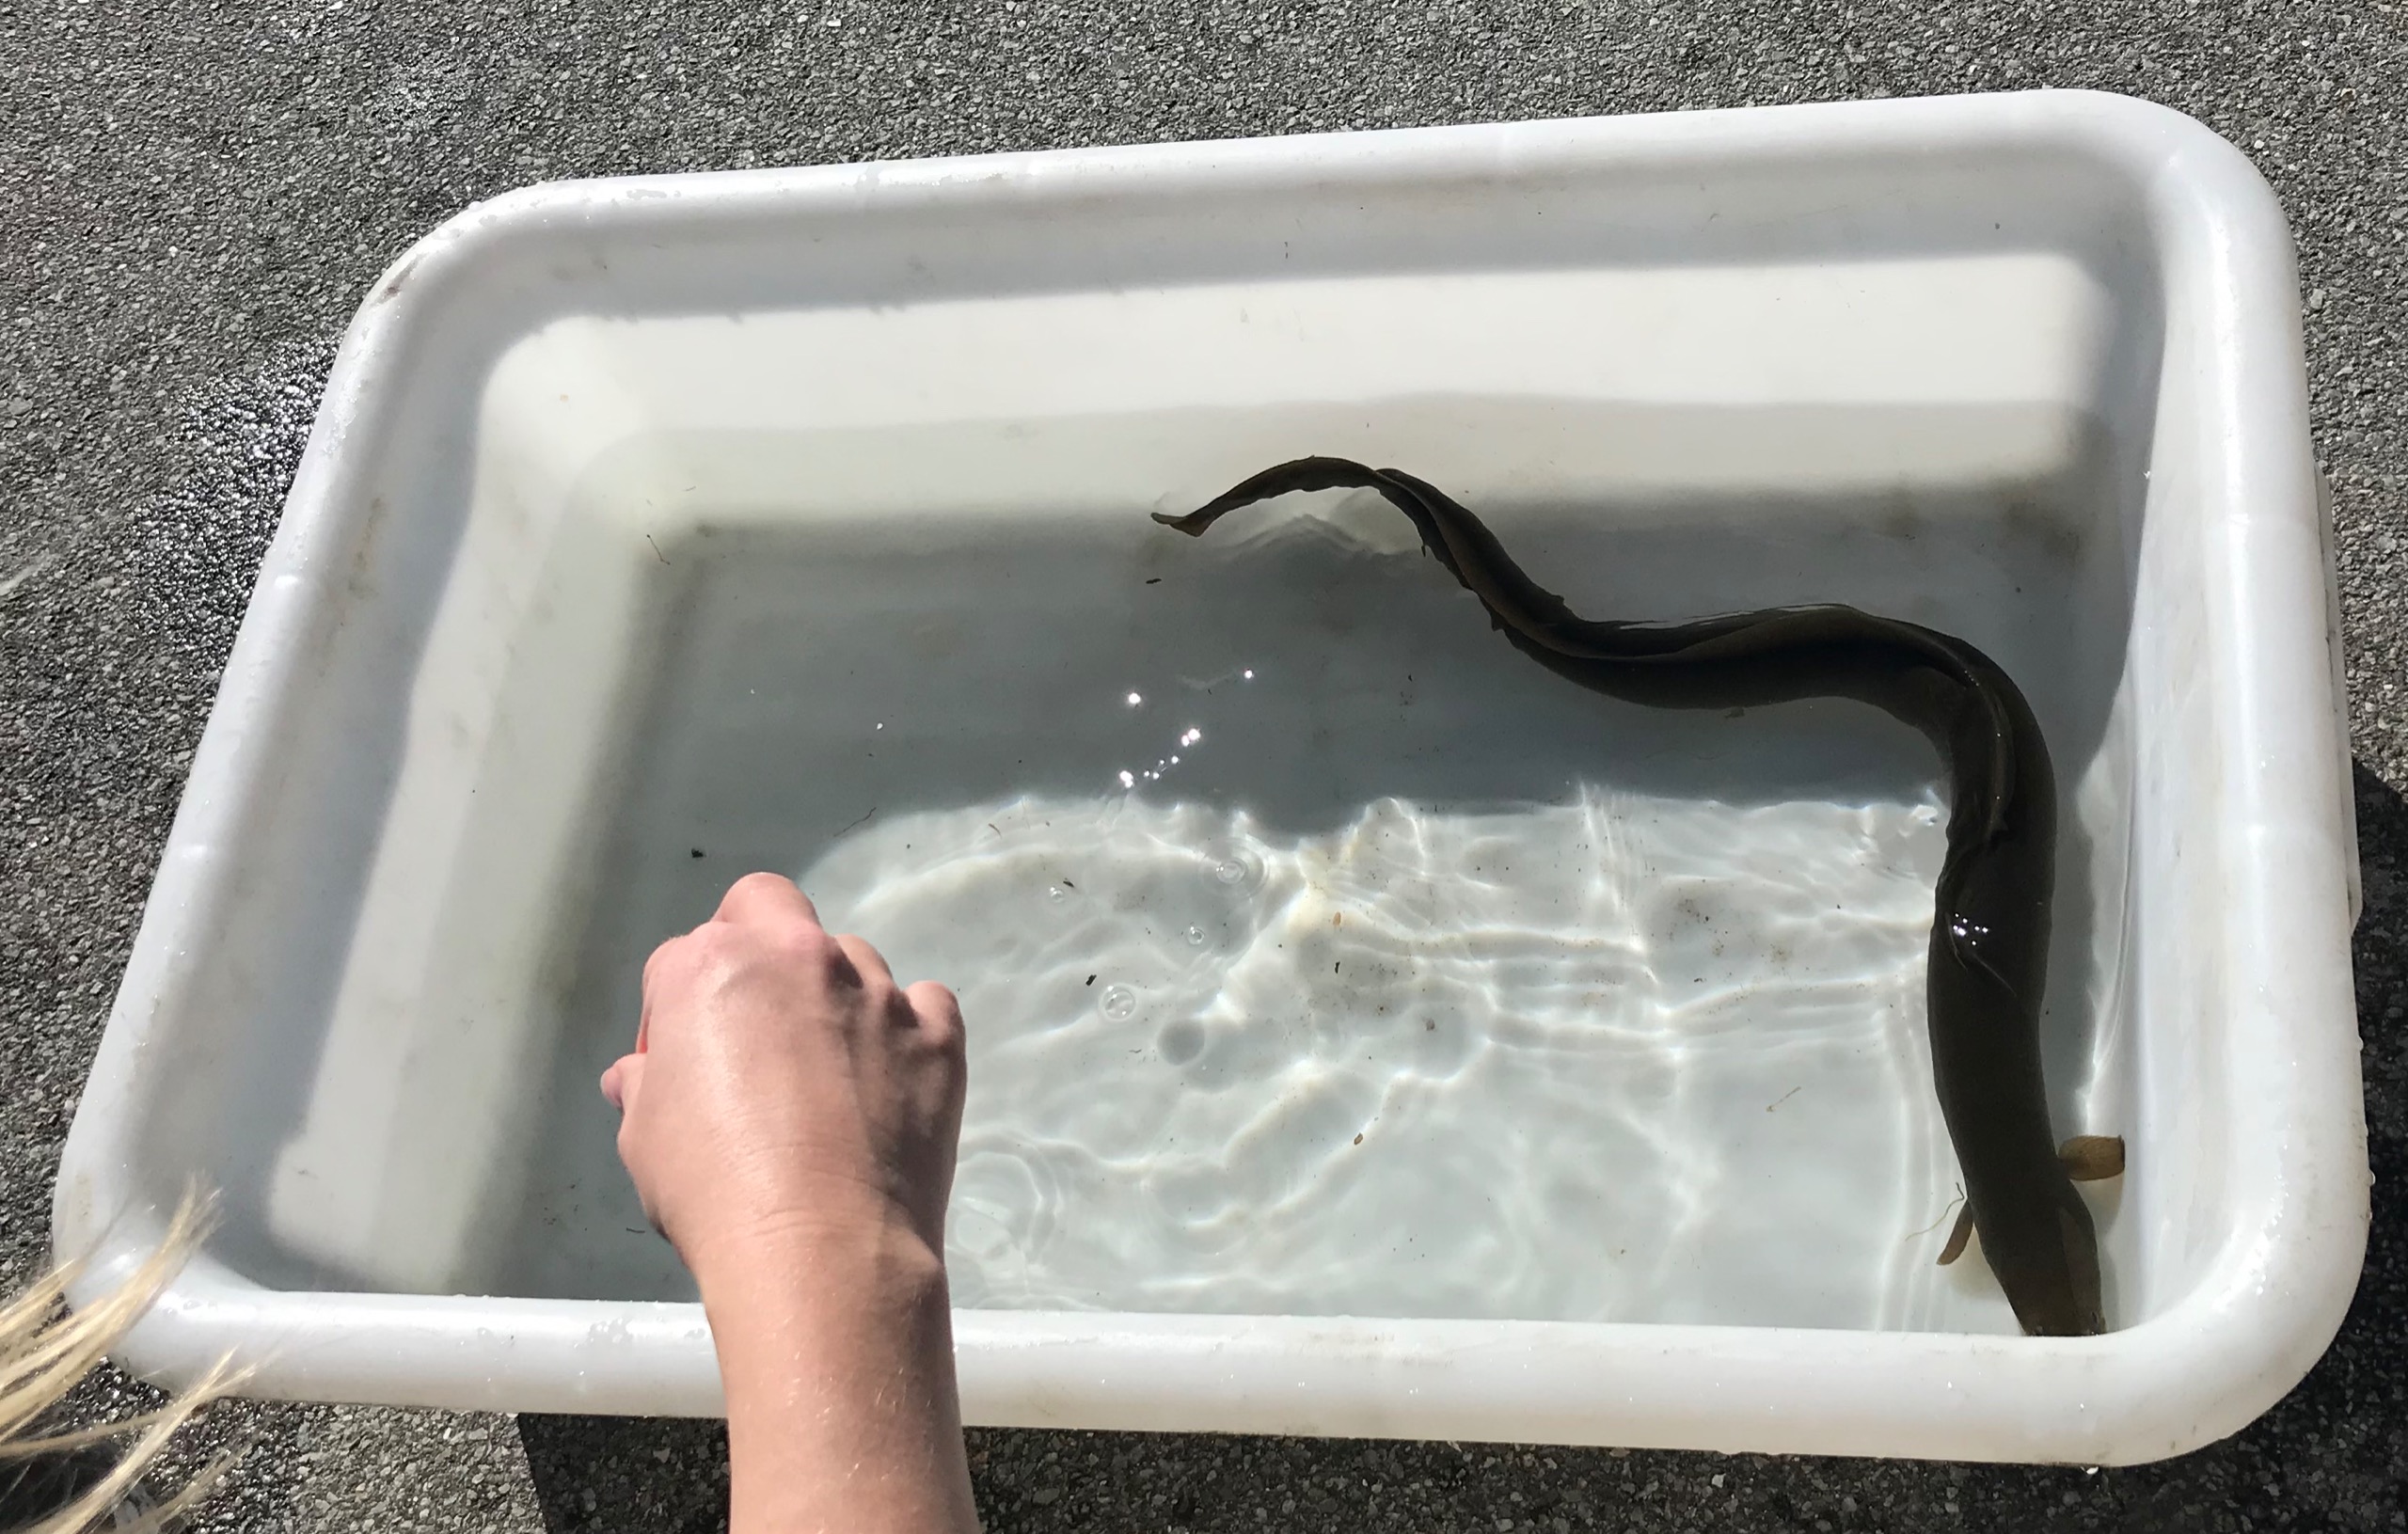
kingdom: Animalia
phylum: Chordata
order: Anguilliformes
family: Anguillidae
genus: Anguilla
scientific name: Anguilla anguilla
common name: Europæisk ål
